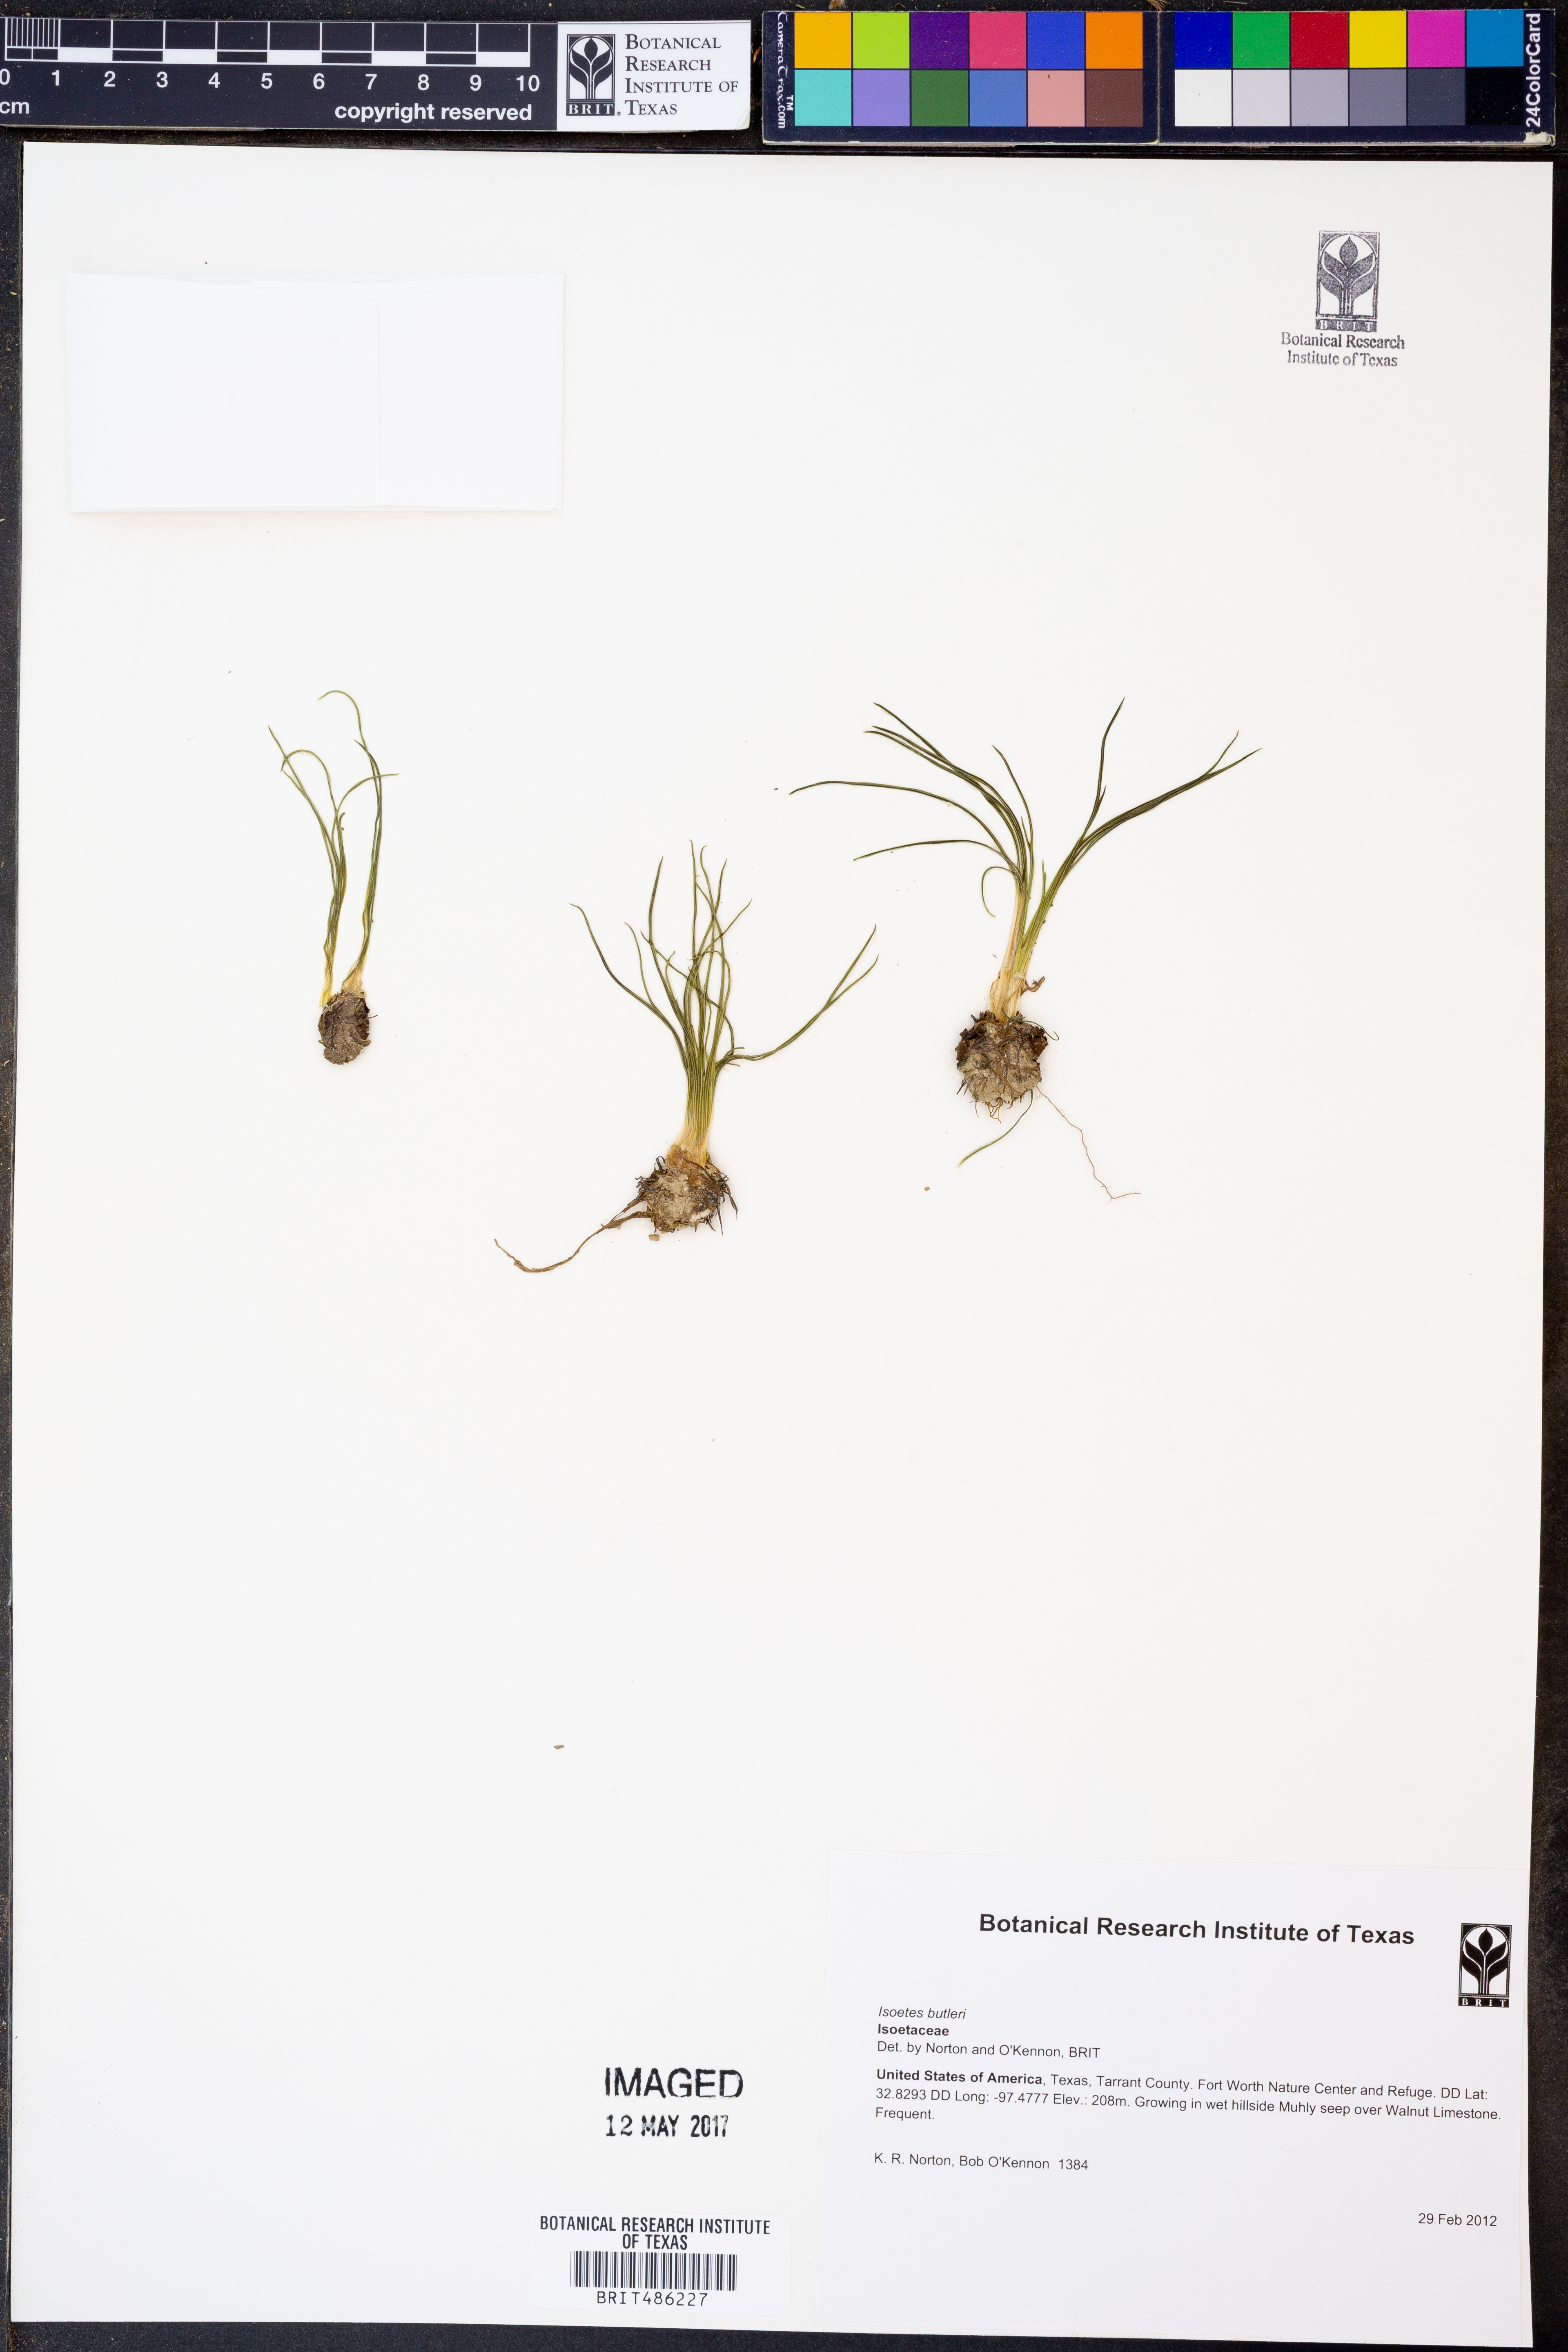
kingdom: Plantae
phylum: Tracheophyta
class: Lycopodiopsida
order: Isoetales
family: Isoetaceae
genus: Isoetes
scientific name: Isoetes butleri
